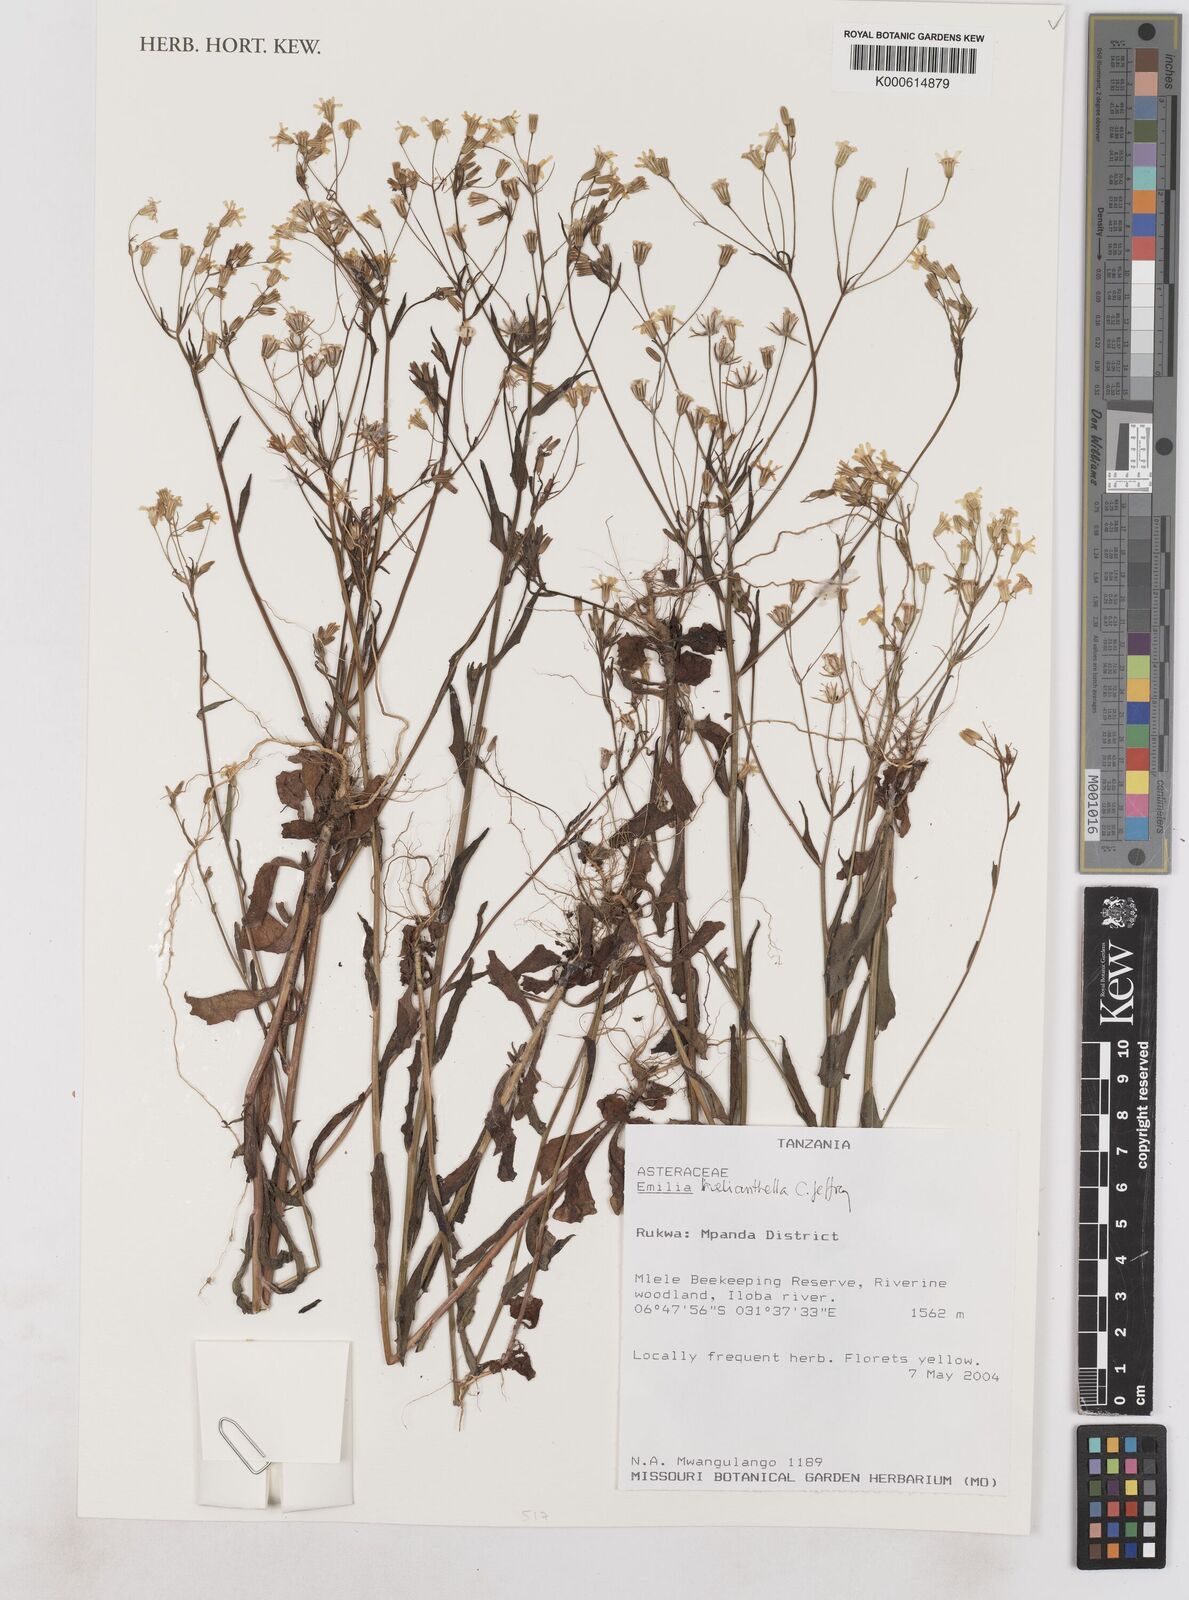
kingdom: Plantae
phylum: Tracheophyta
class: Magnoliopsida
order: Asterales
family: Asteraceae
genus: Emilia
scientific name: Emilia helianthella
